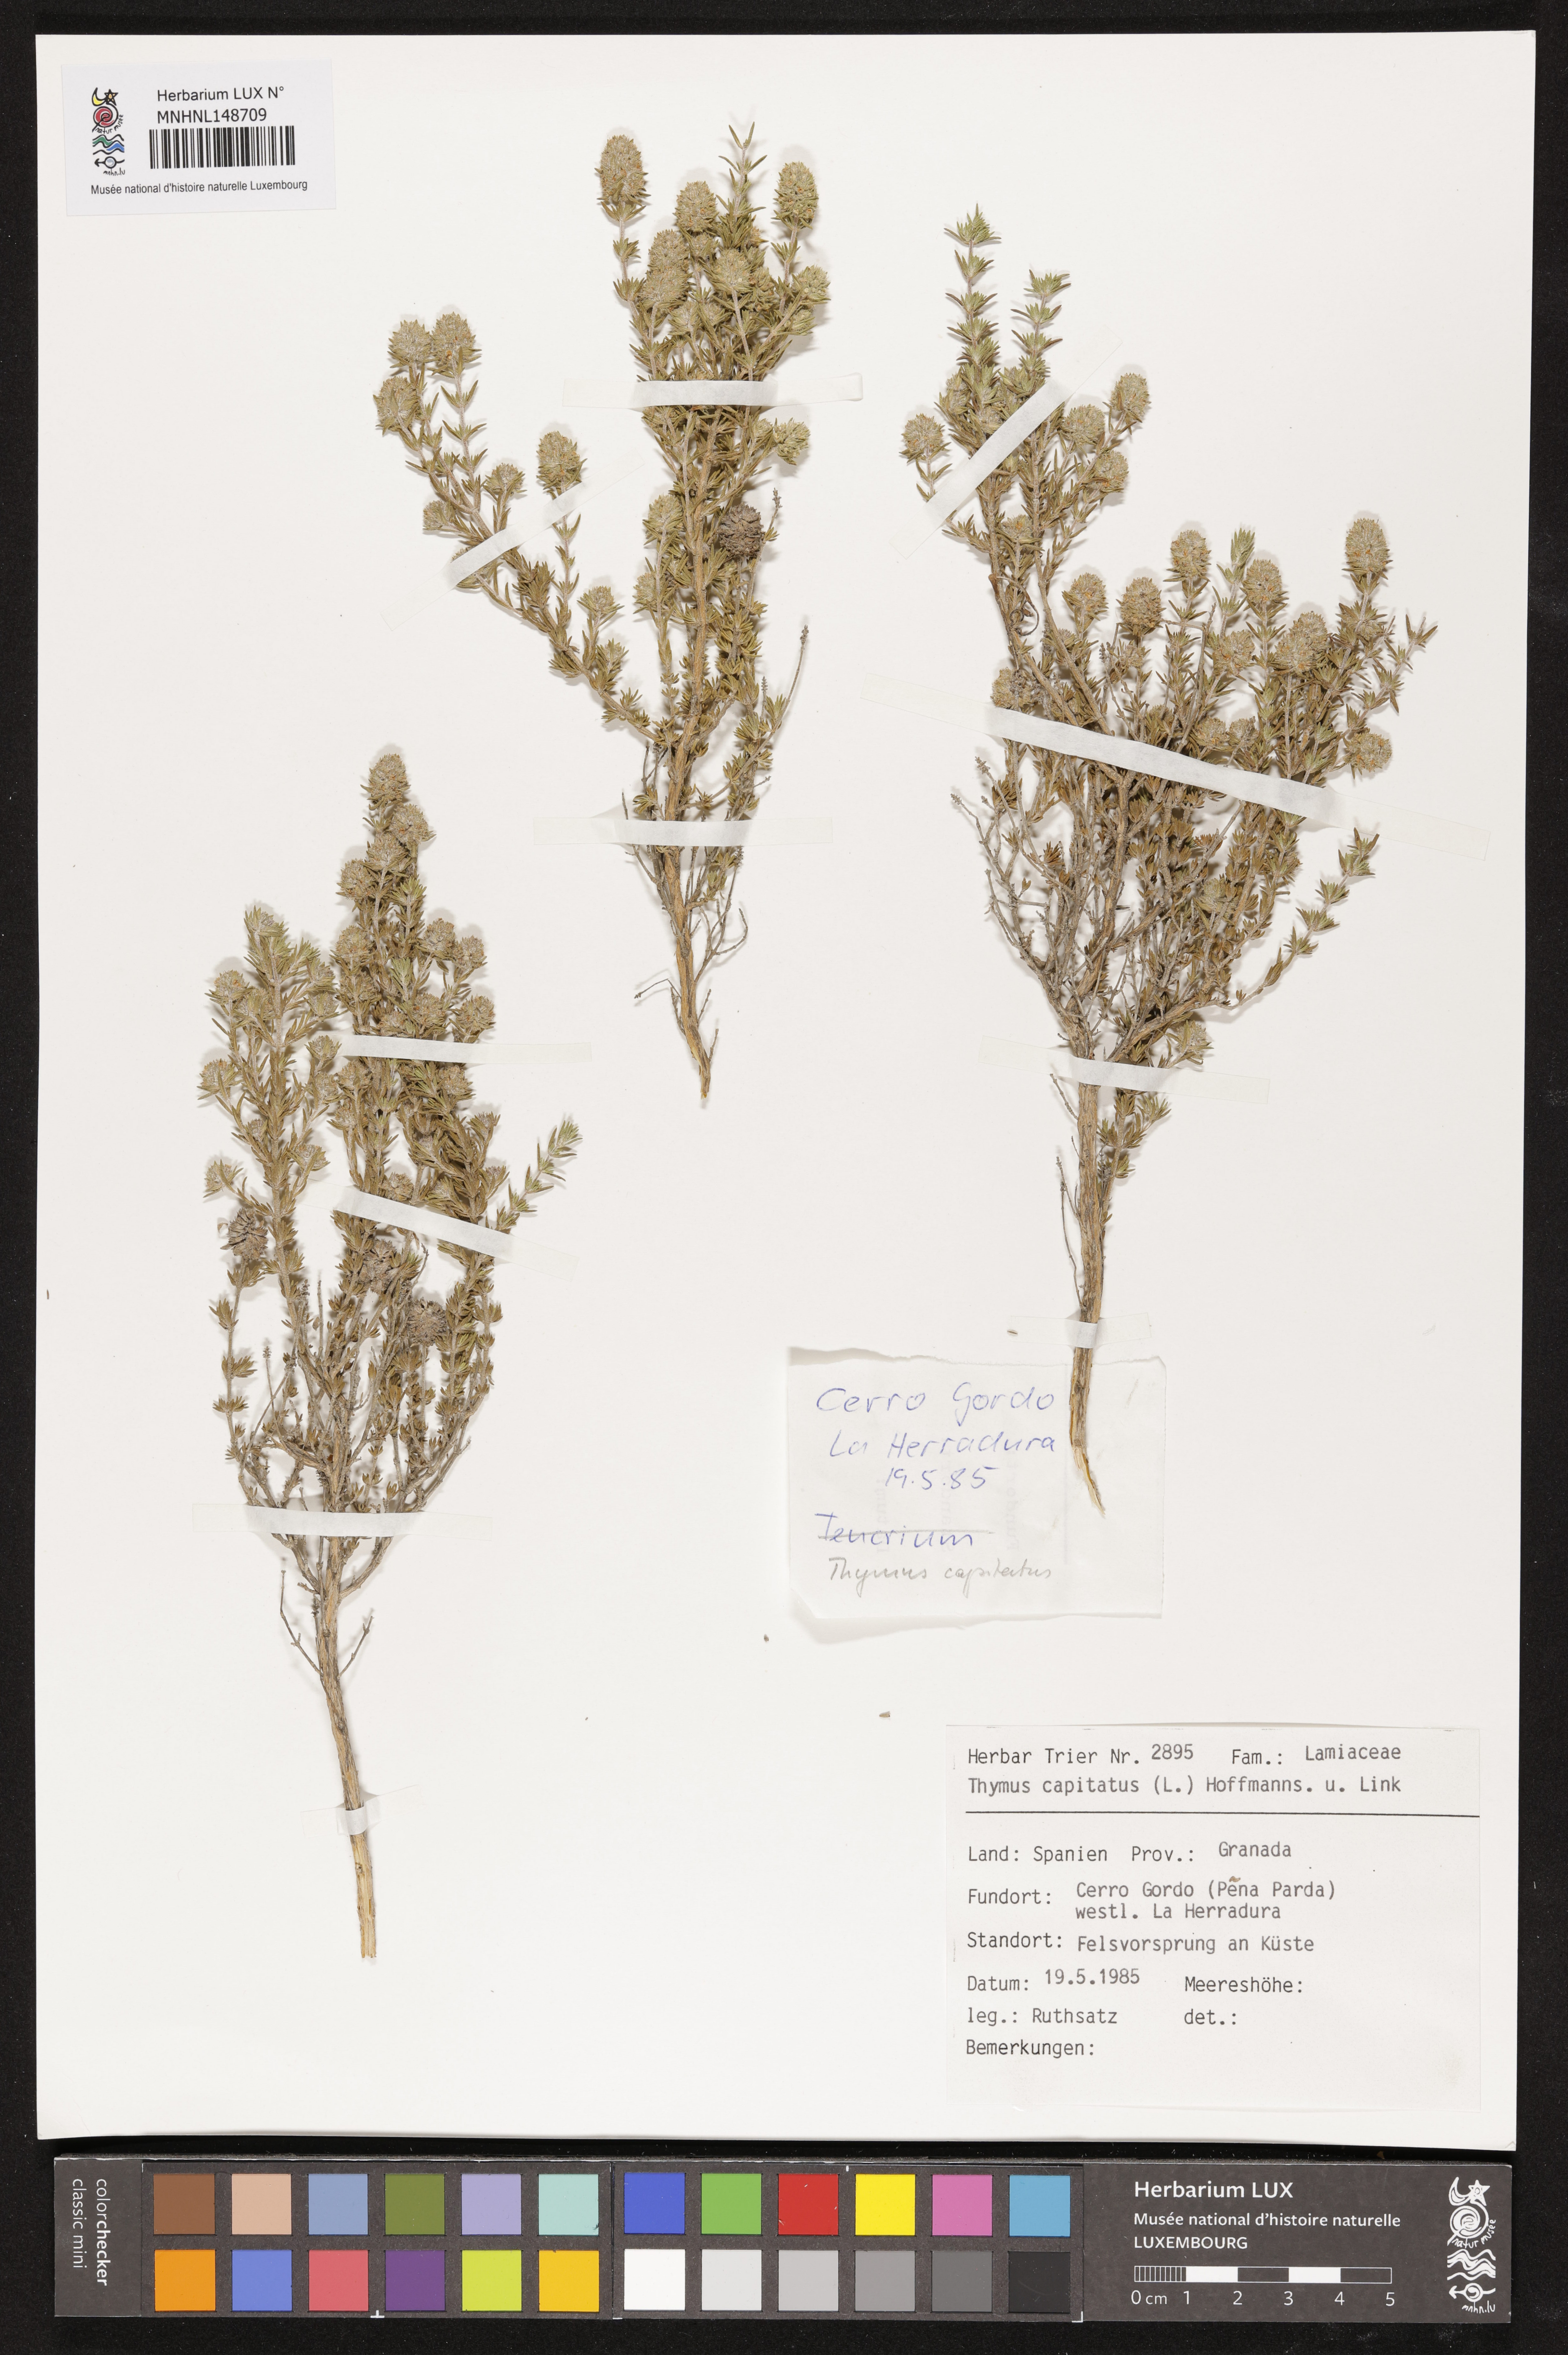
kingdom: Plantae
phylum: Tracheophyta
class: Magnoliopsida
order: Lamiales
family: Lamiaceae
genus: Thymbra
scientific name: Thymbra capitata
